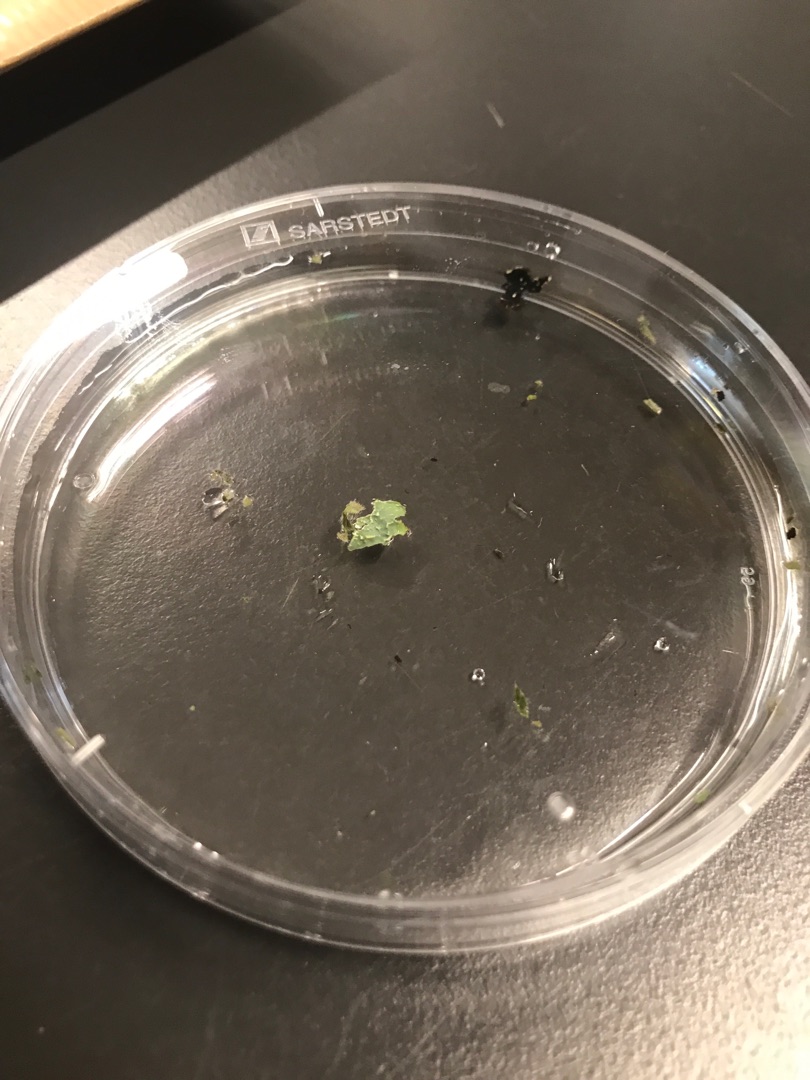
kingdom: Fungi
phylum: Ascomycota
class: Lecanoromycetes
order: Lecanorales
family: Parmeliaceae
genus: Parmelia
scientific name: Parmelia sulcata
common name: Rynket skållav
